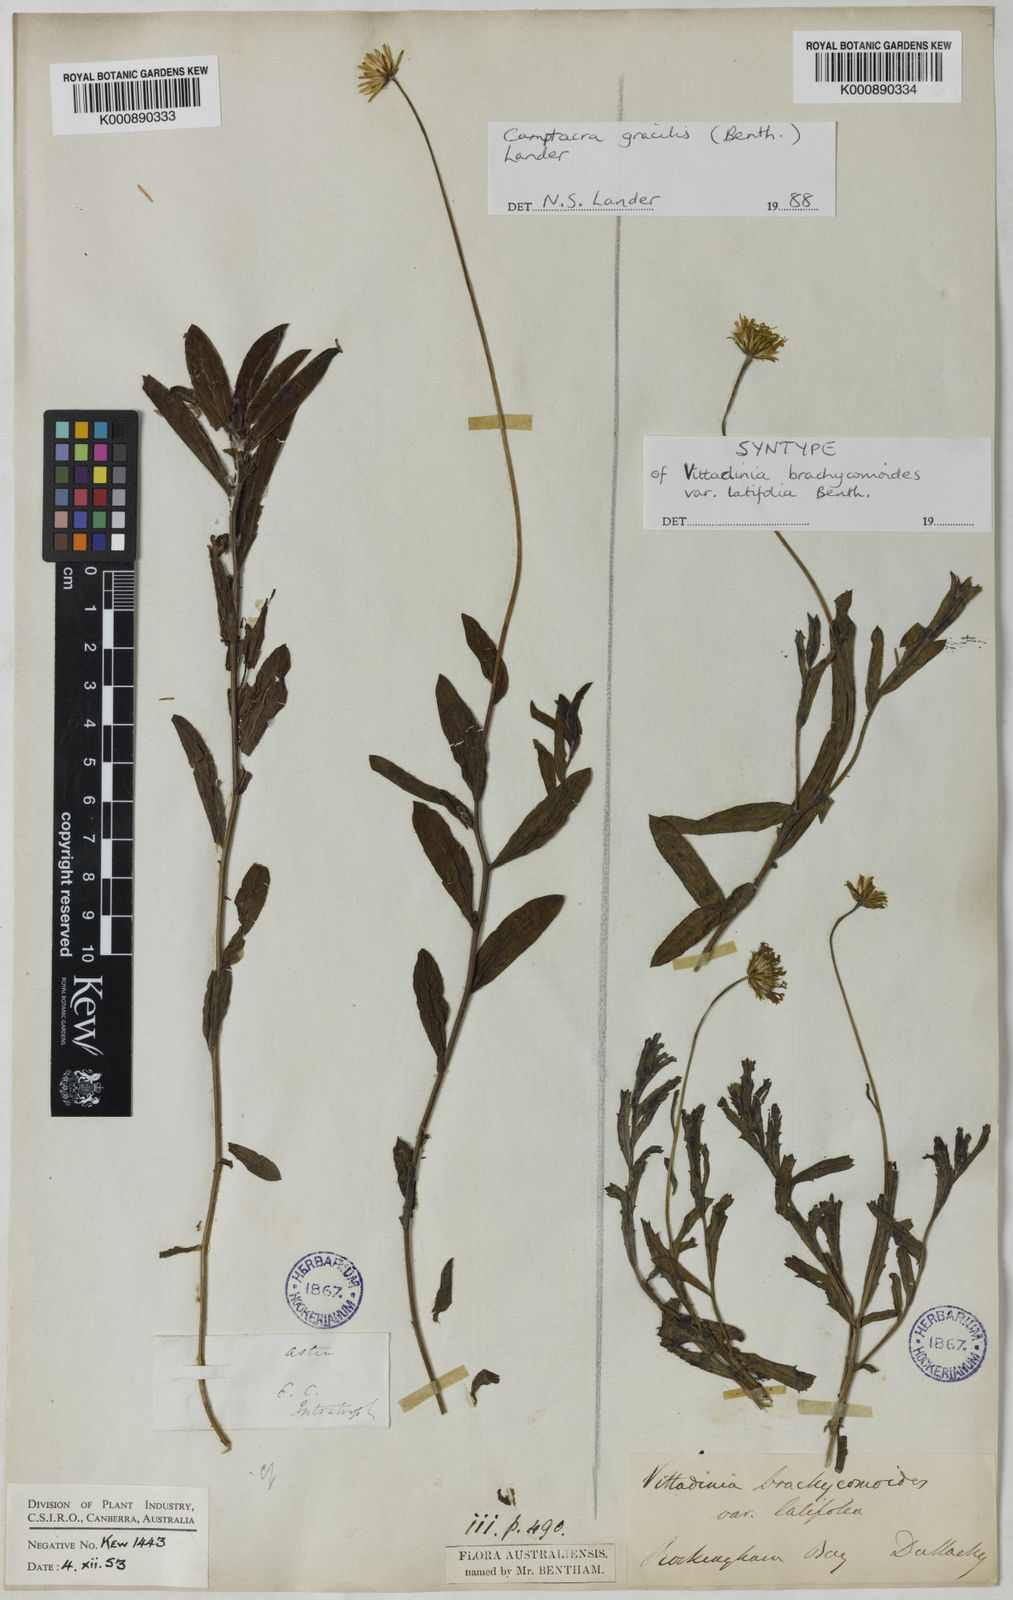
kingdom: Plantae
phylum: Tracheophyta
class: Magnoliopsida
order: Asterales
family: Asteraceae
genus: Camptacra
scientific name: Camptacra gracilis
